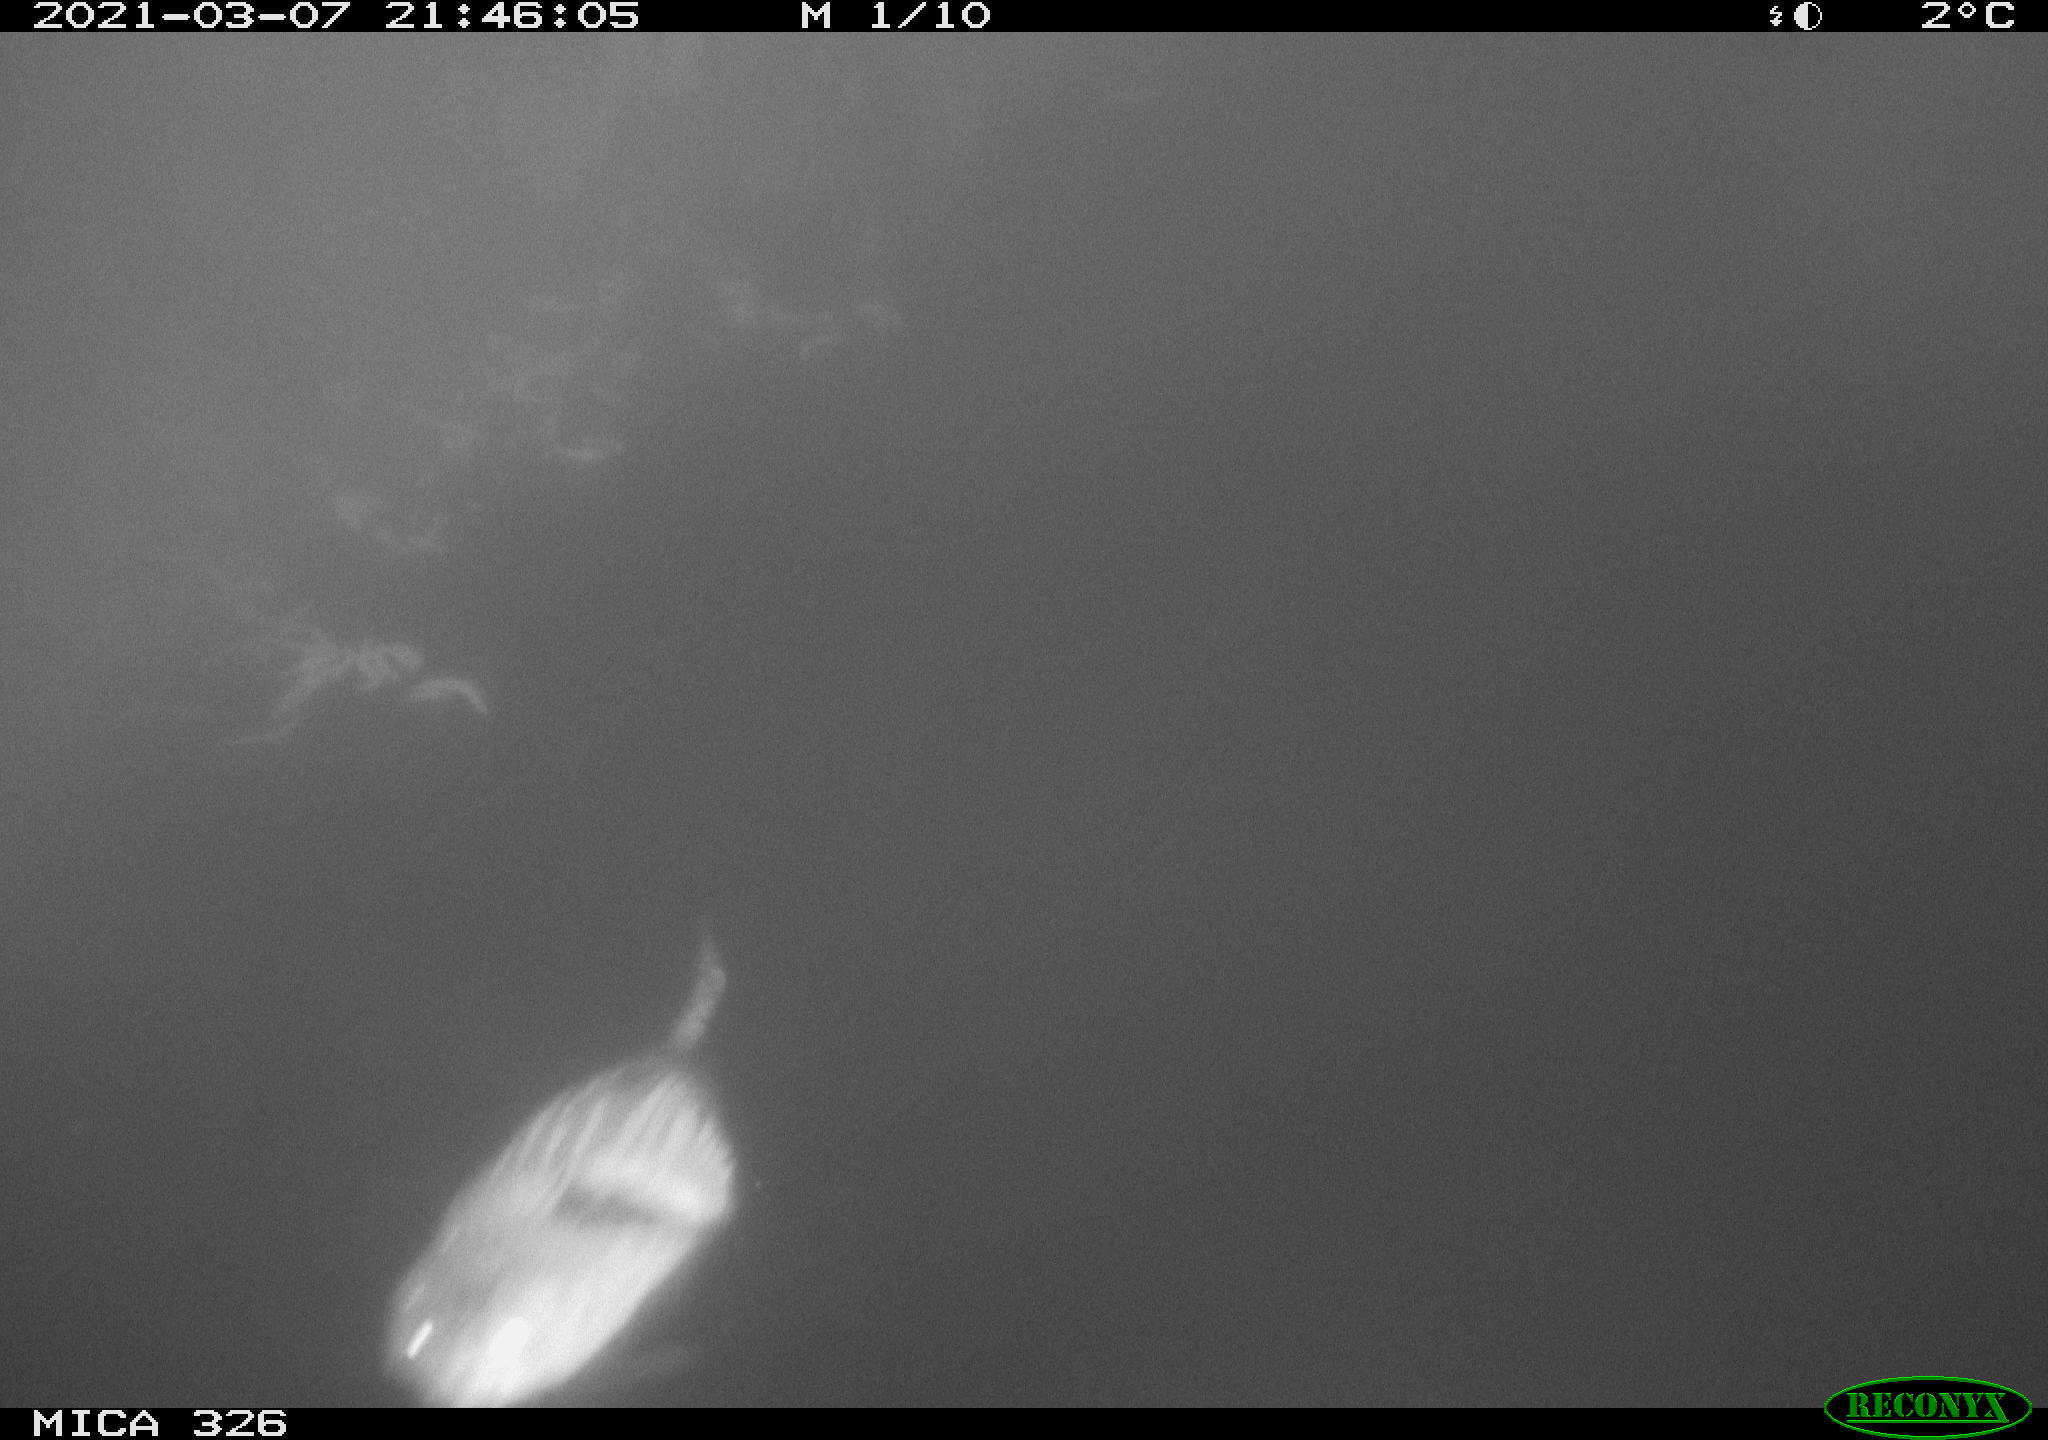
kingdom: Animalia
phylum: Chordata
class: Mammalia
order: Rodentia
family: Cricetidae
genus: Ondatra
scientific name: Ondatra zibethicus
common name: Muskrat
